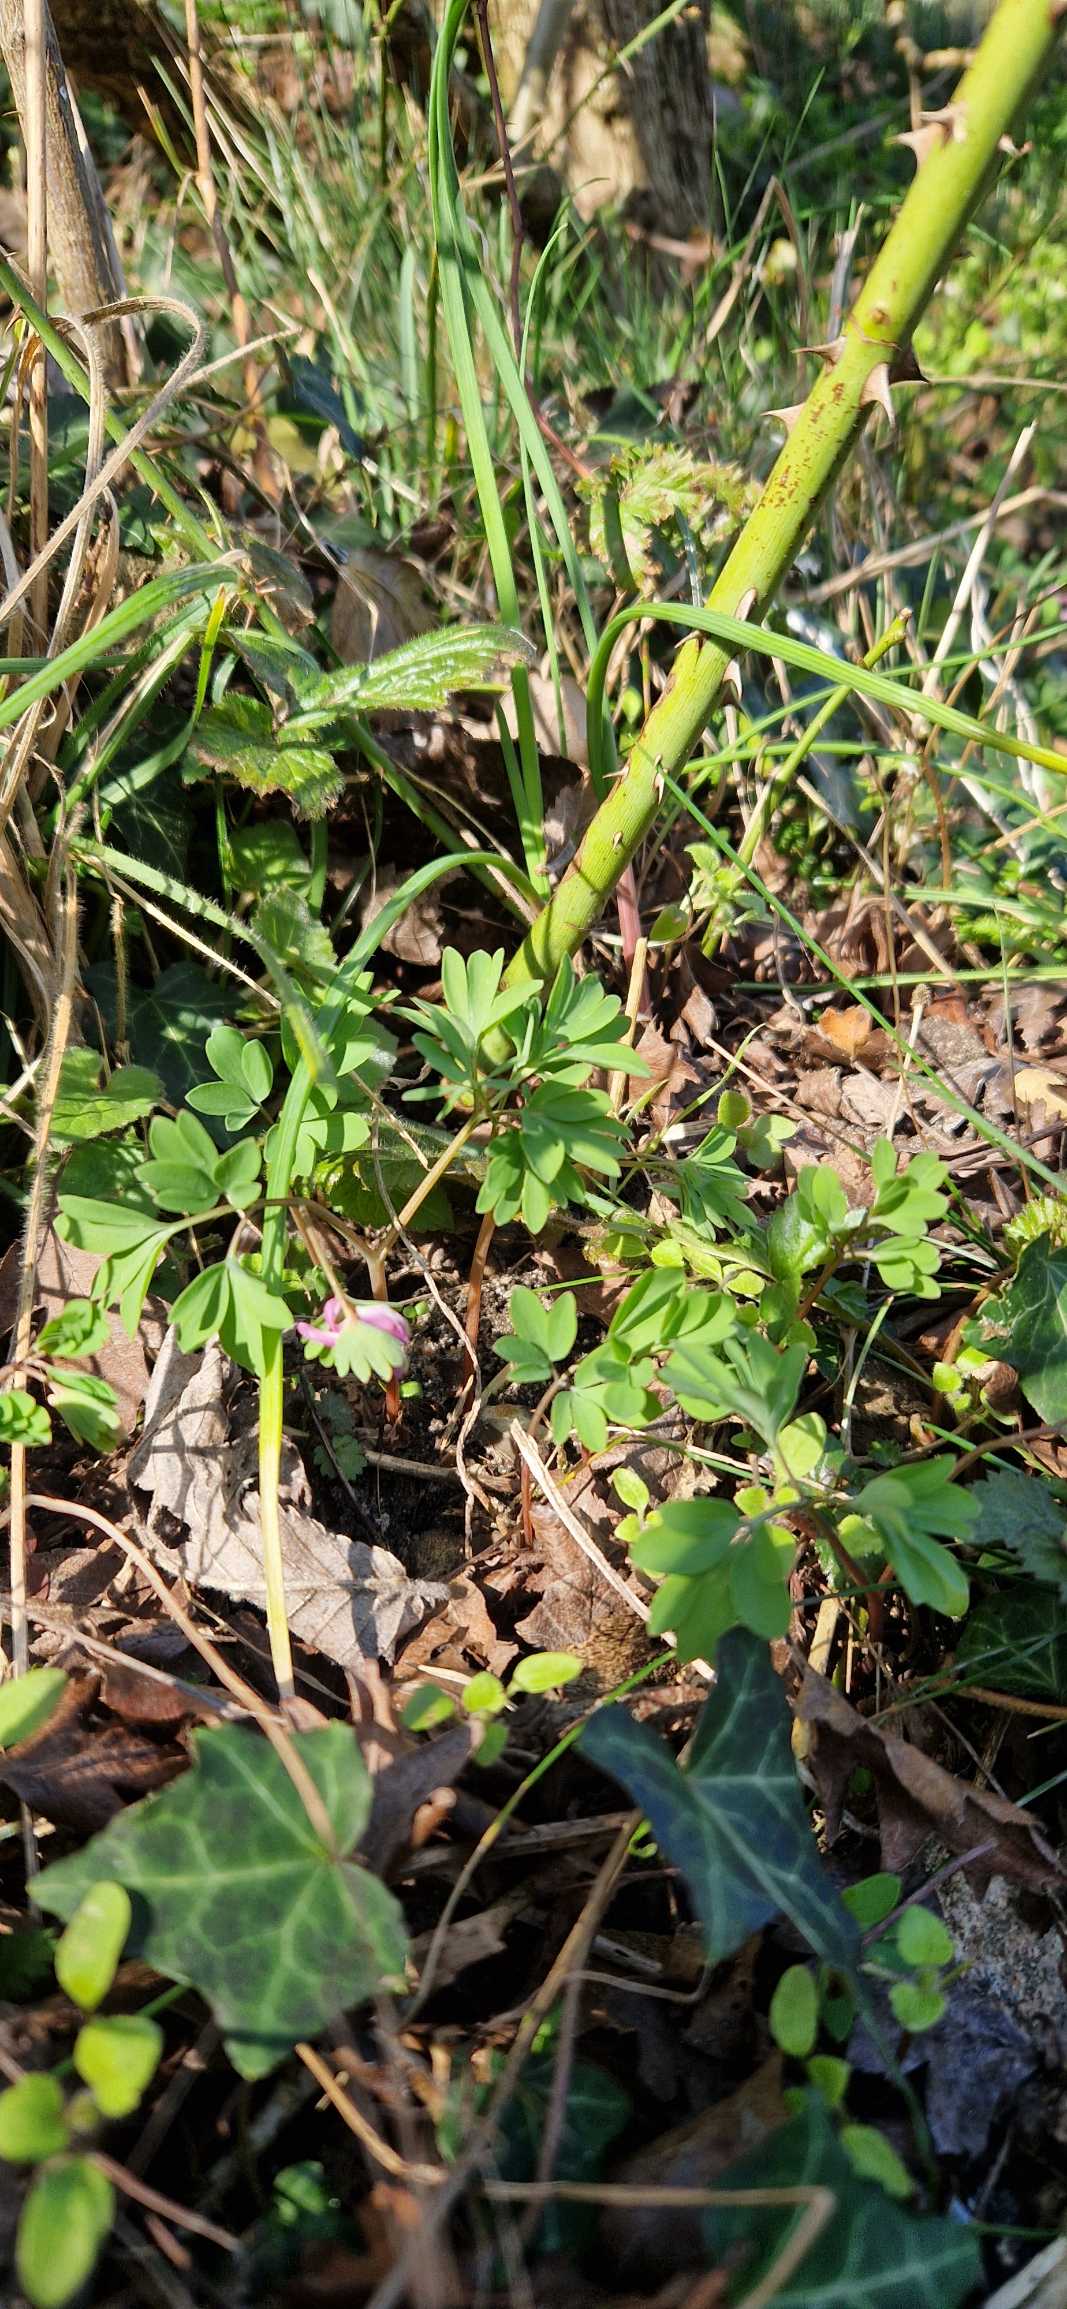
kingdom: Plantae
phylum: Tracheophyta
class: Magnoliopsida
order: Ranunculales
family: Papaveraceae
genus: Corydalis
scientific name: Corydalis pumila
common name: Finger-lærkespore
